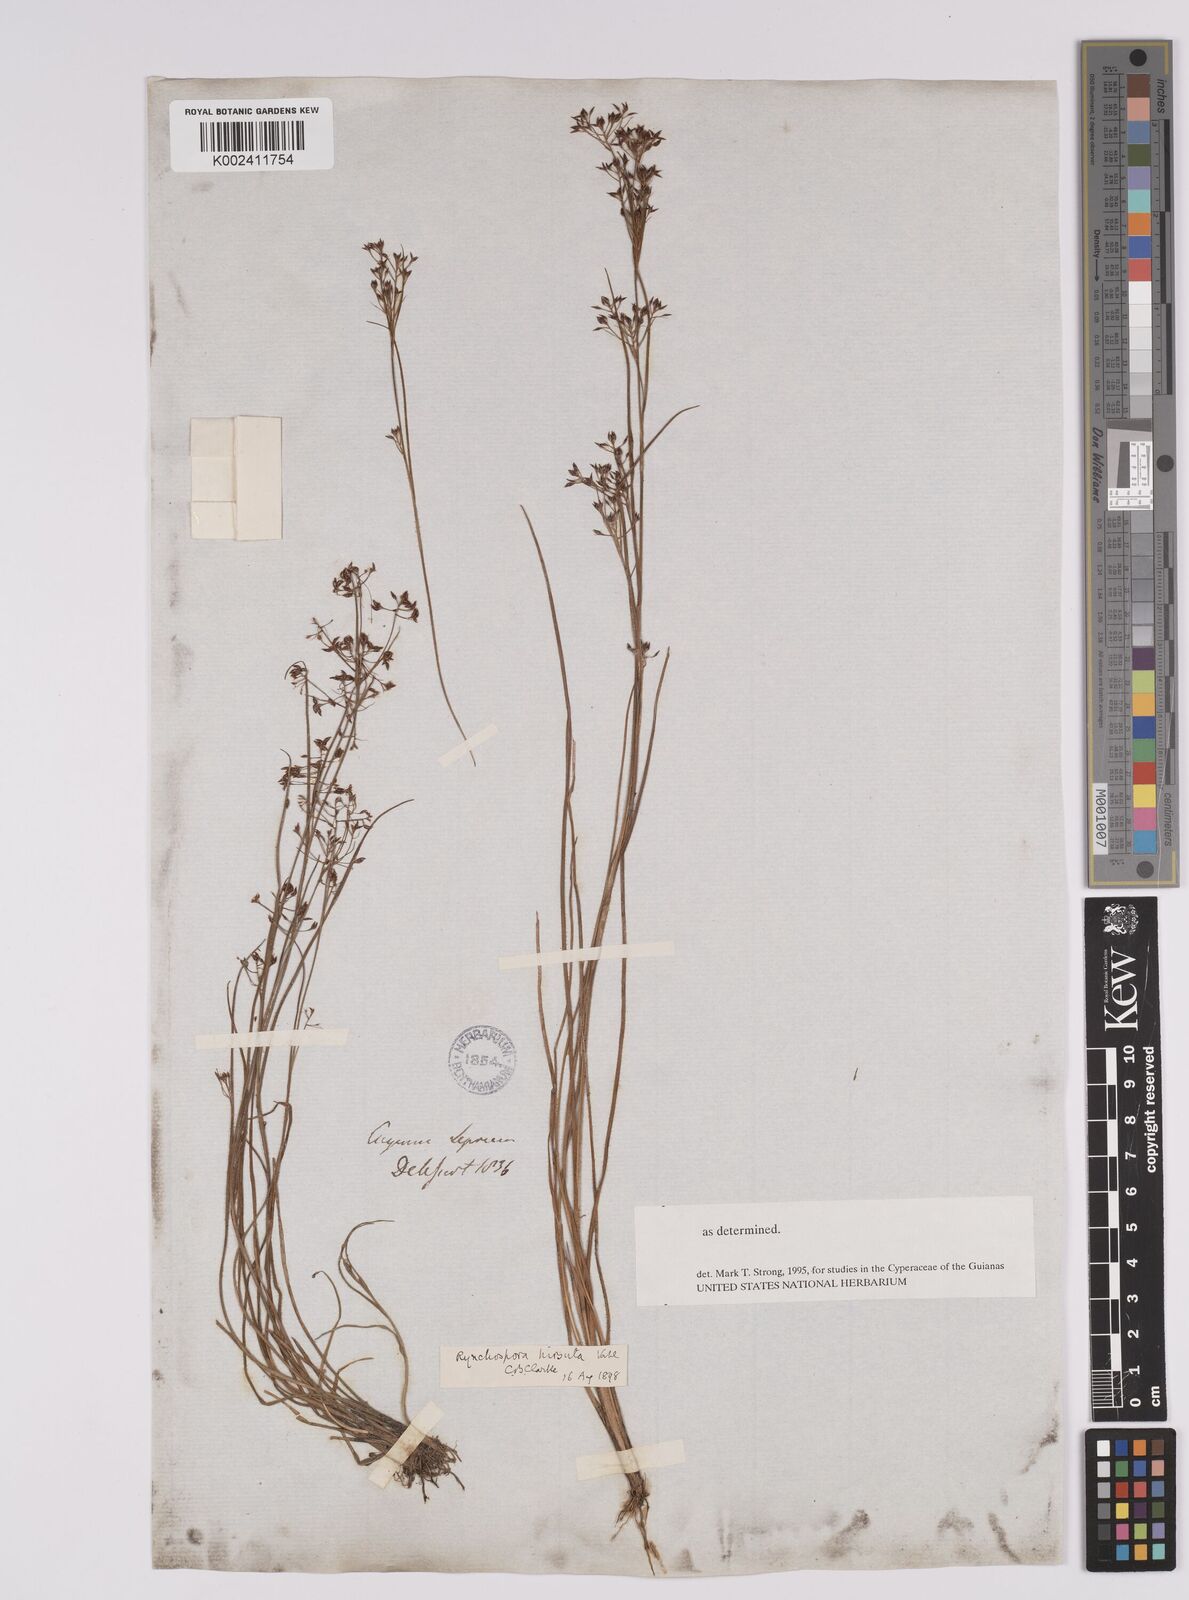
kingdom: Plantae
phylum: Tracheophyta
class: Liliopsida
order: Poales
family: Cyperaceae
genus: Rhynchospora
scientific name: Rhynchospora brevirostris
